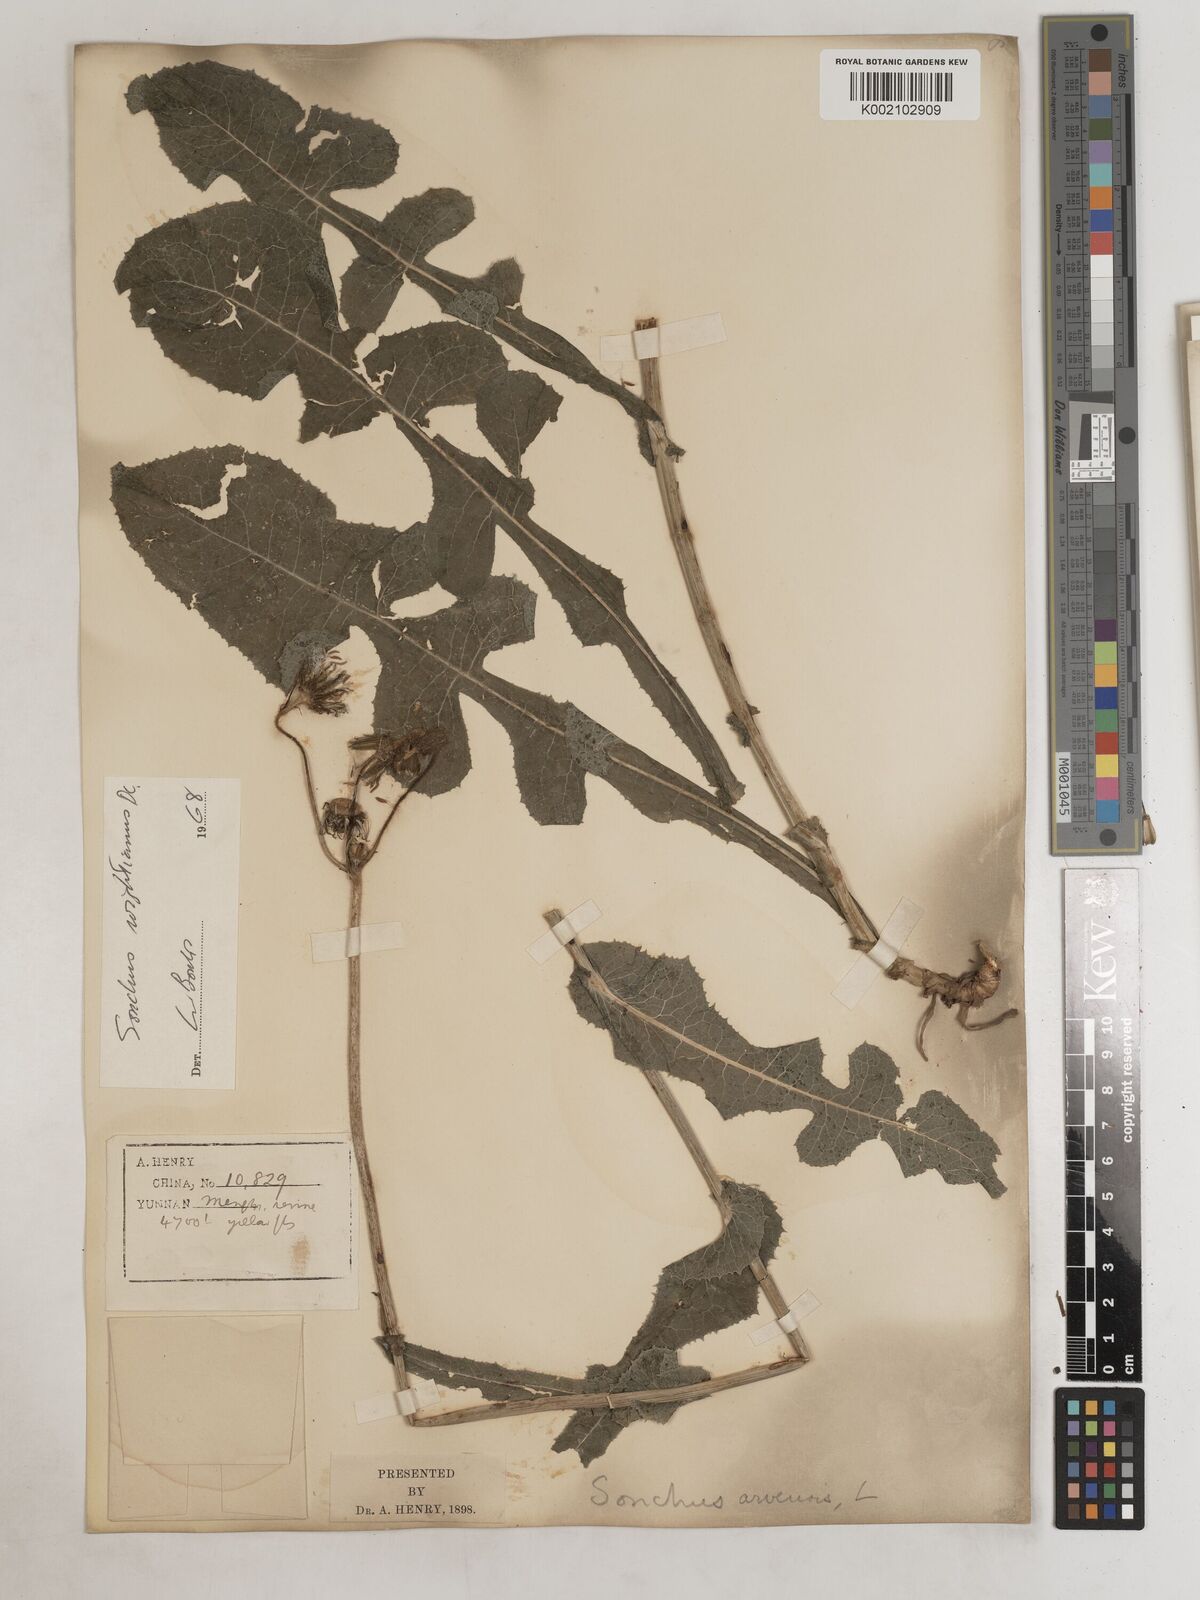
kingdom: Plantae
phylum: Tracheophyta
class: Magnoliopsida
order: Asterales
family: Asteraceae
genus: Sonchus
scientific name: Sonchus wightianus
